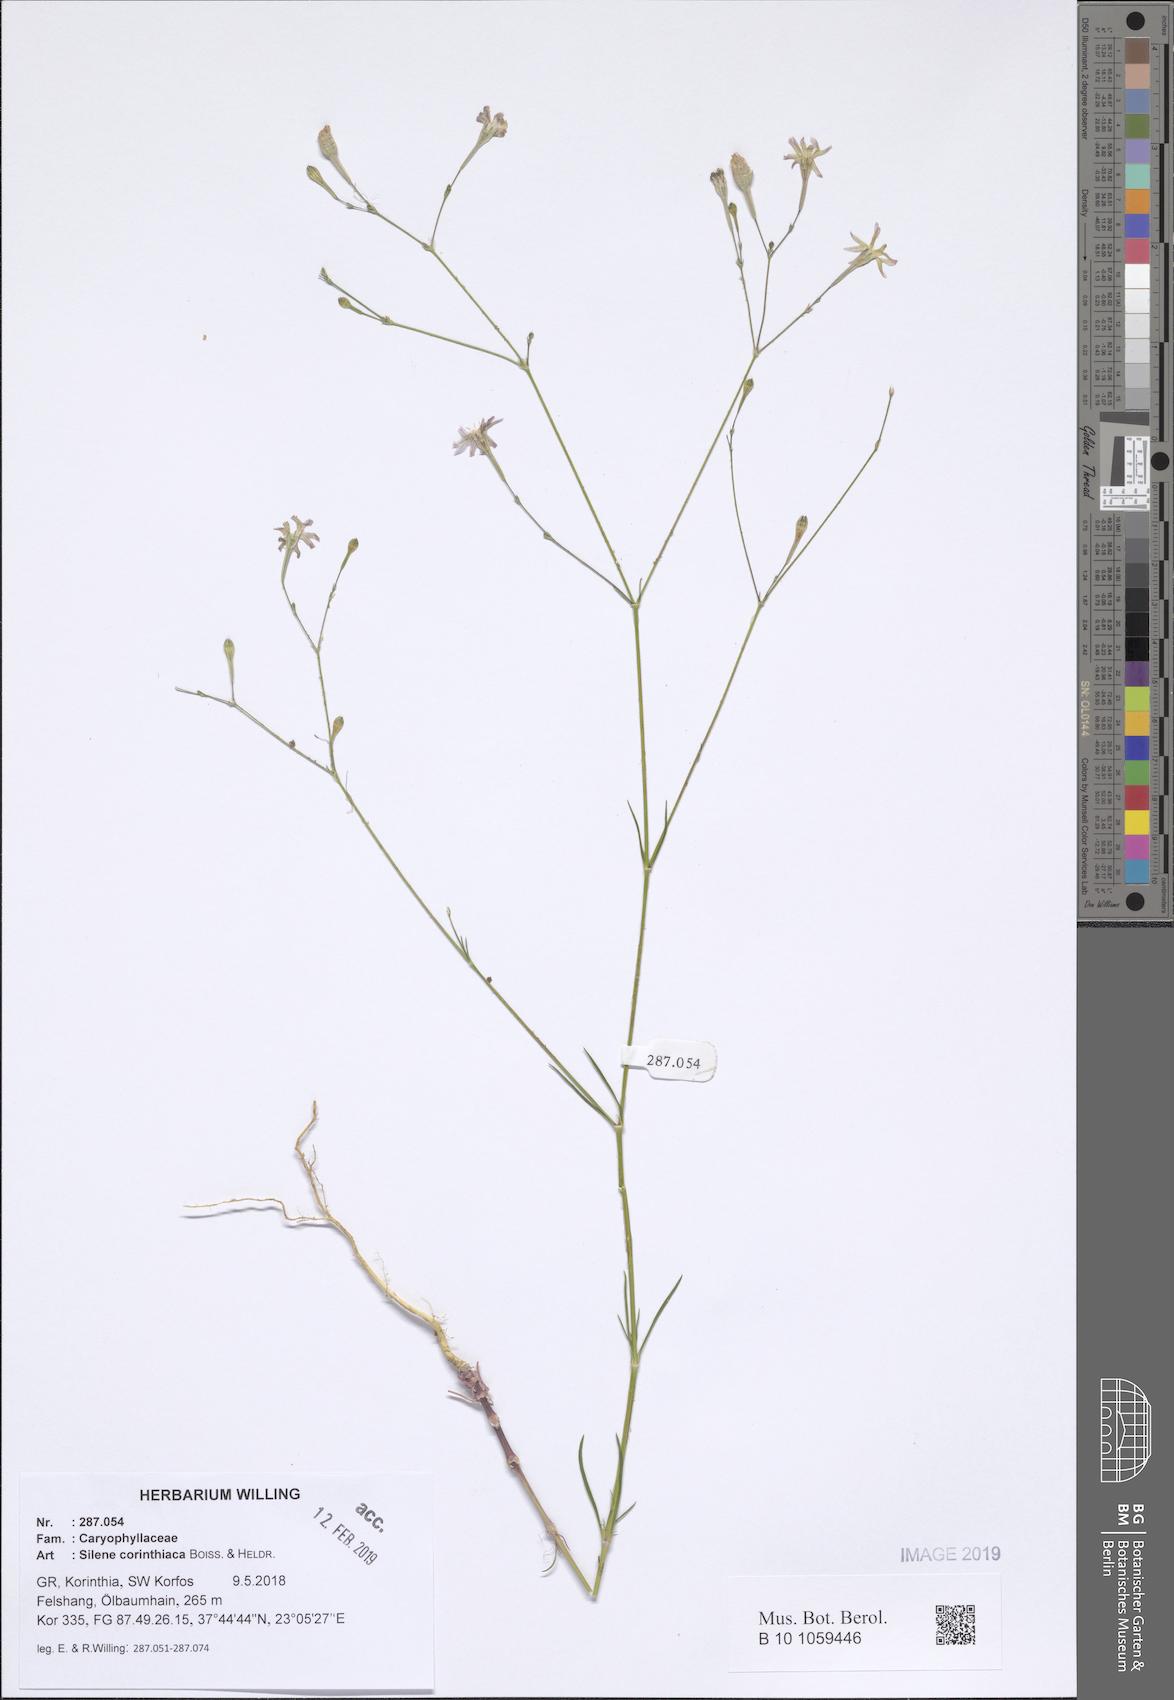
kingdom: Plantae
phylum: Tracheophyta
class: Magnoliopsida
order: Caryophyllales
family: Caryophyllaceae
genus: Silene
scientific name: Silene corinthiaca
